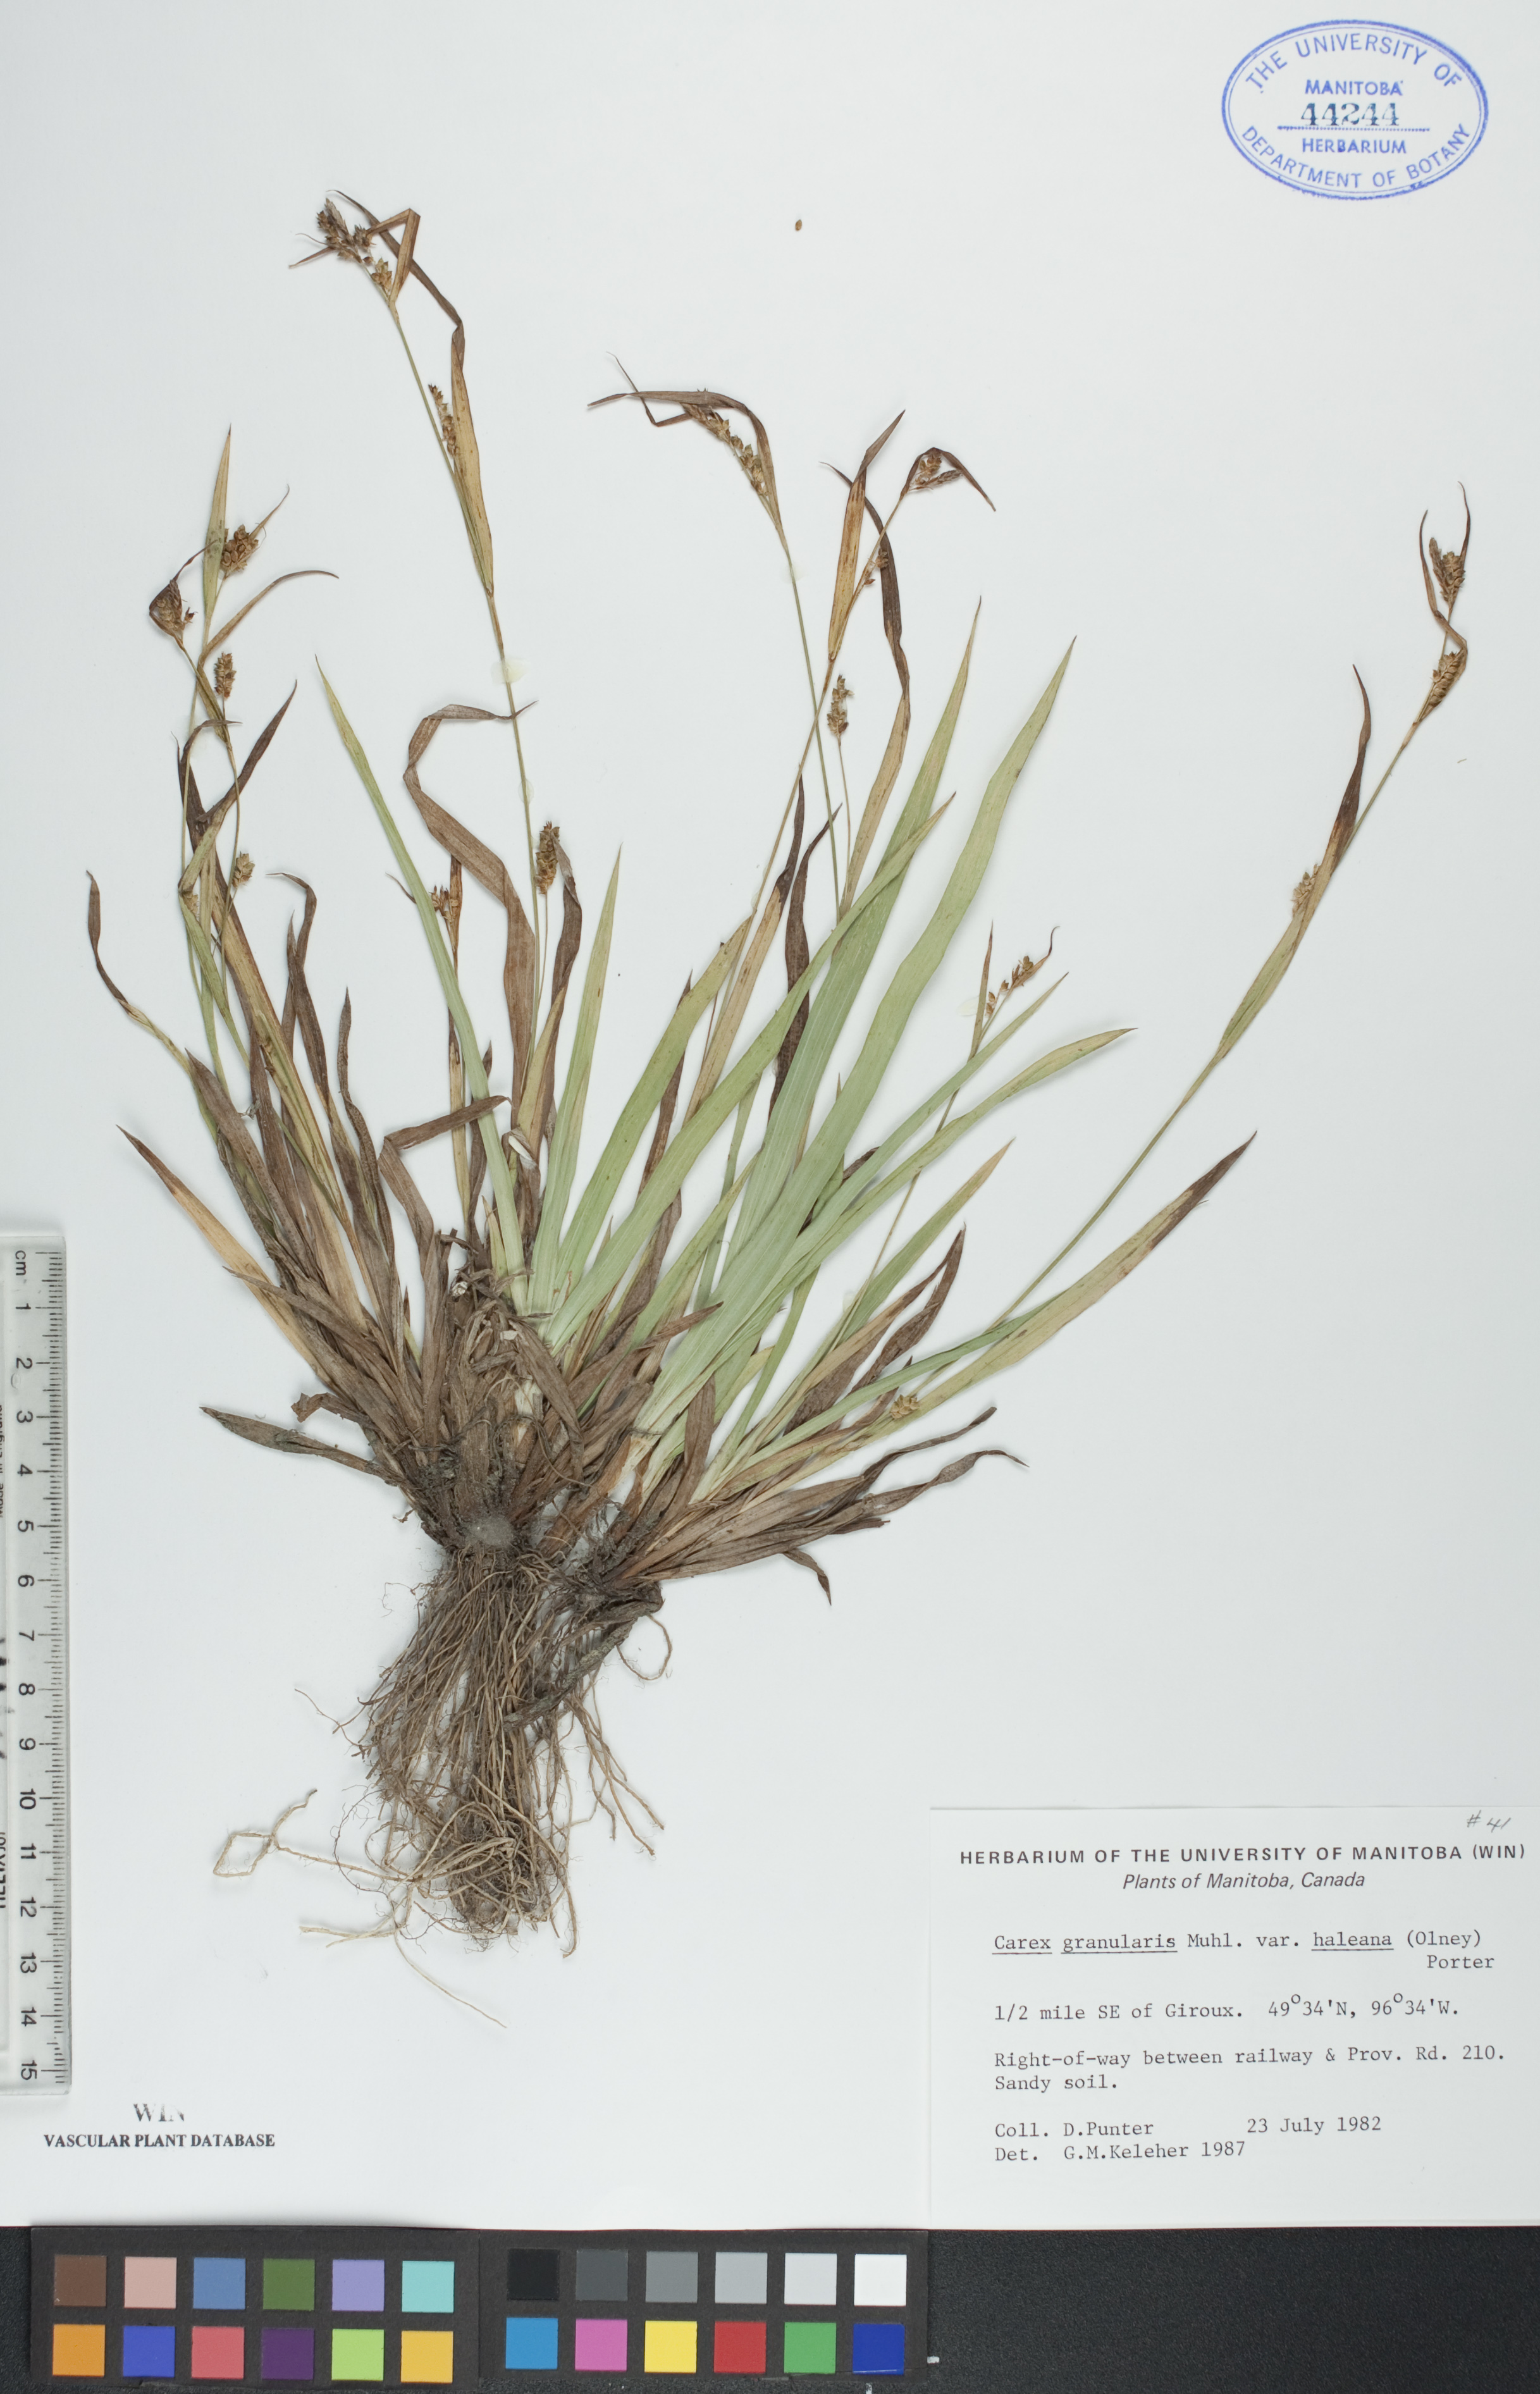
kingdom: Plantae
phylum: Tracheophyta
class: Liliopsida
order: Poales
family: Cyperaceae
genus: Carex
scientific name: Carex granularis
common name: Granular sedge
